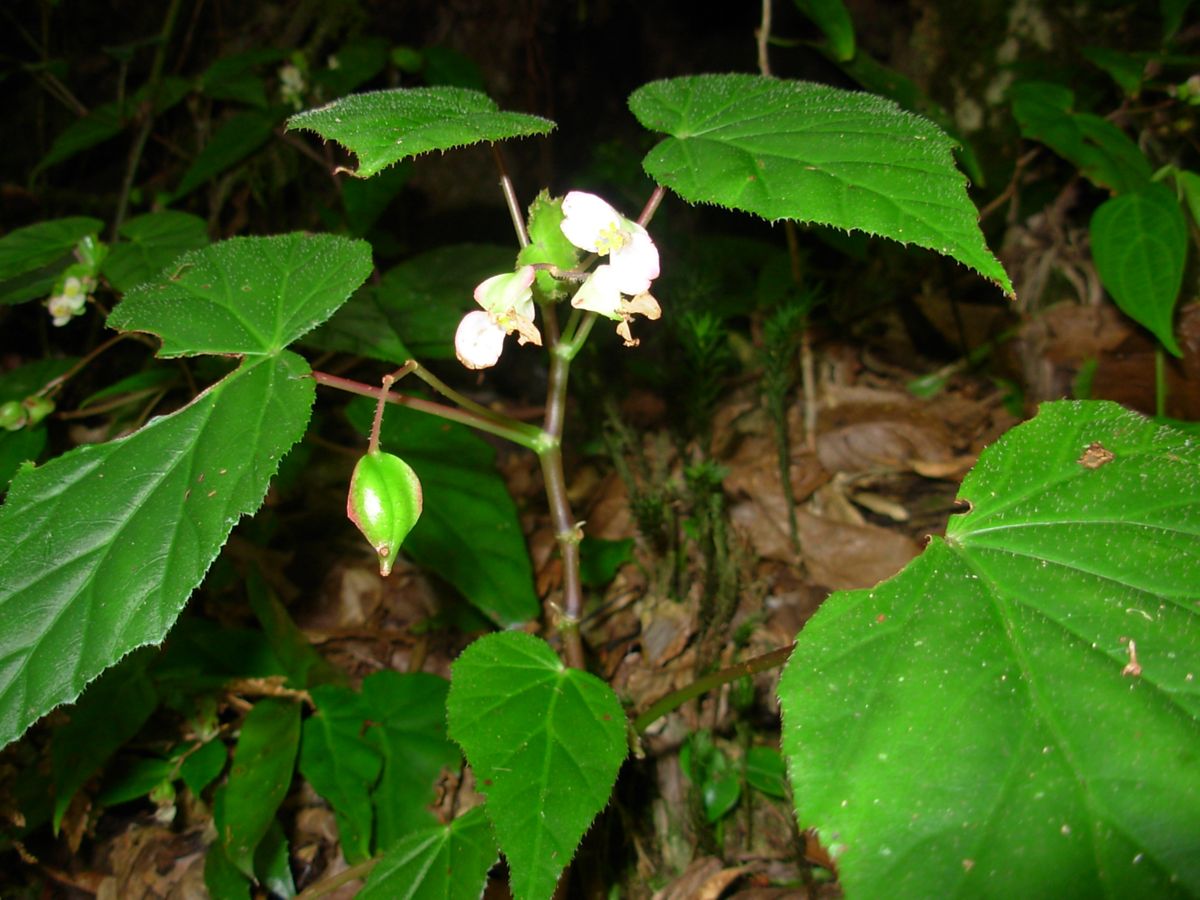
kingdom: Plantae
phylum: Tracheophyta
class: Magnoliopsida
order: Cucurbitales
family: Begoniaceae
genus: Begonia
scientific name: Begonia assurgens
